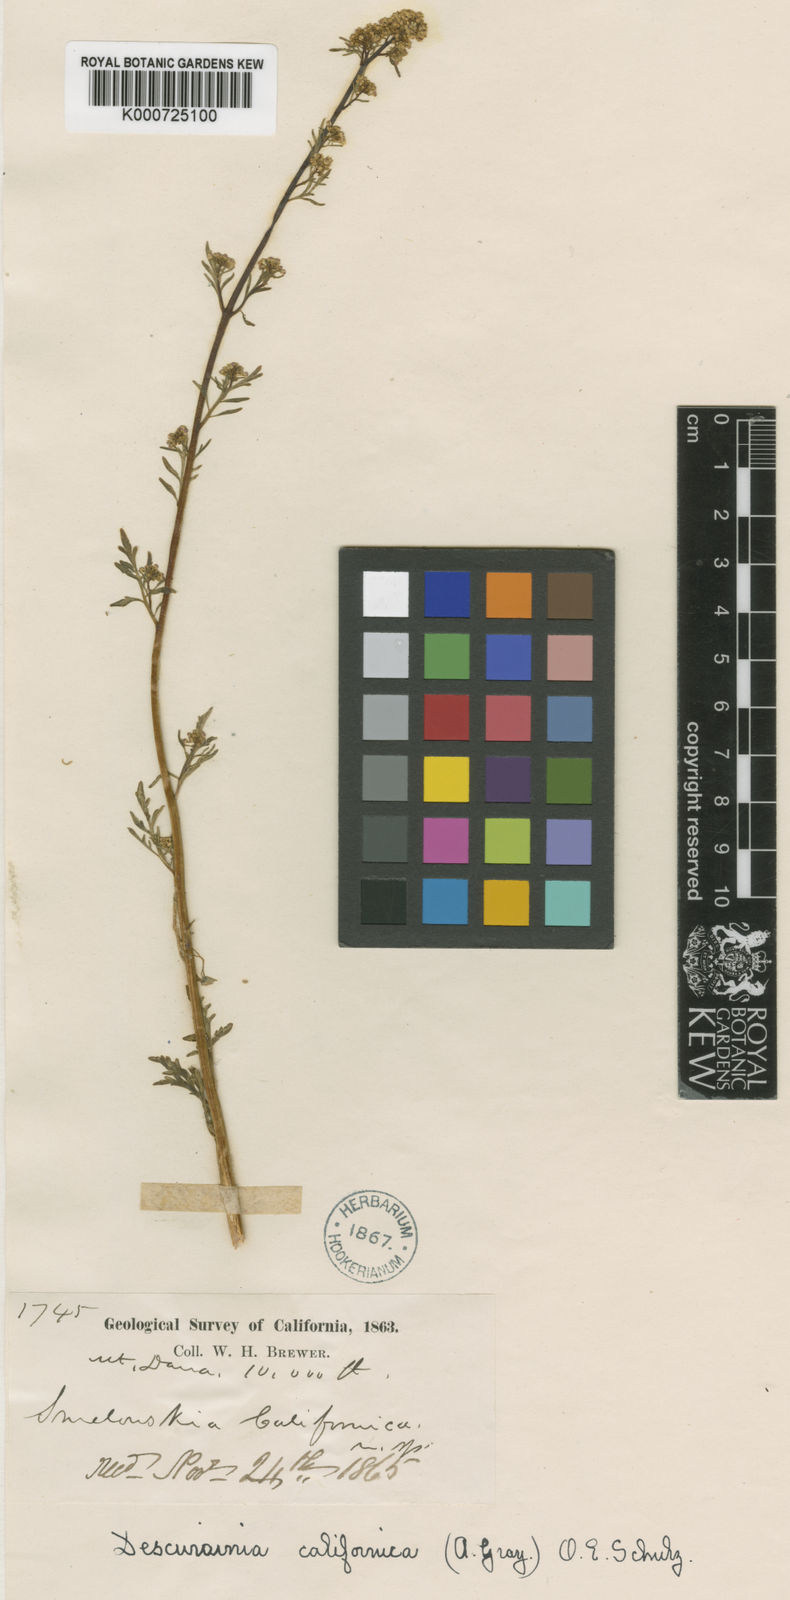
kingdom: Plantae
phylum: Tracheophyta
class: Magnoliopsida
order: Brassicales
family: Brassicaceae
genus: Descurainia
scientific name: Descurainia californica
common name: California tansy mustard
